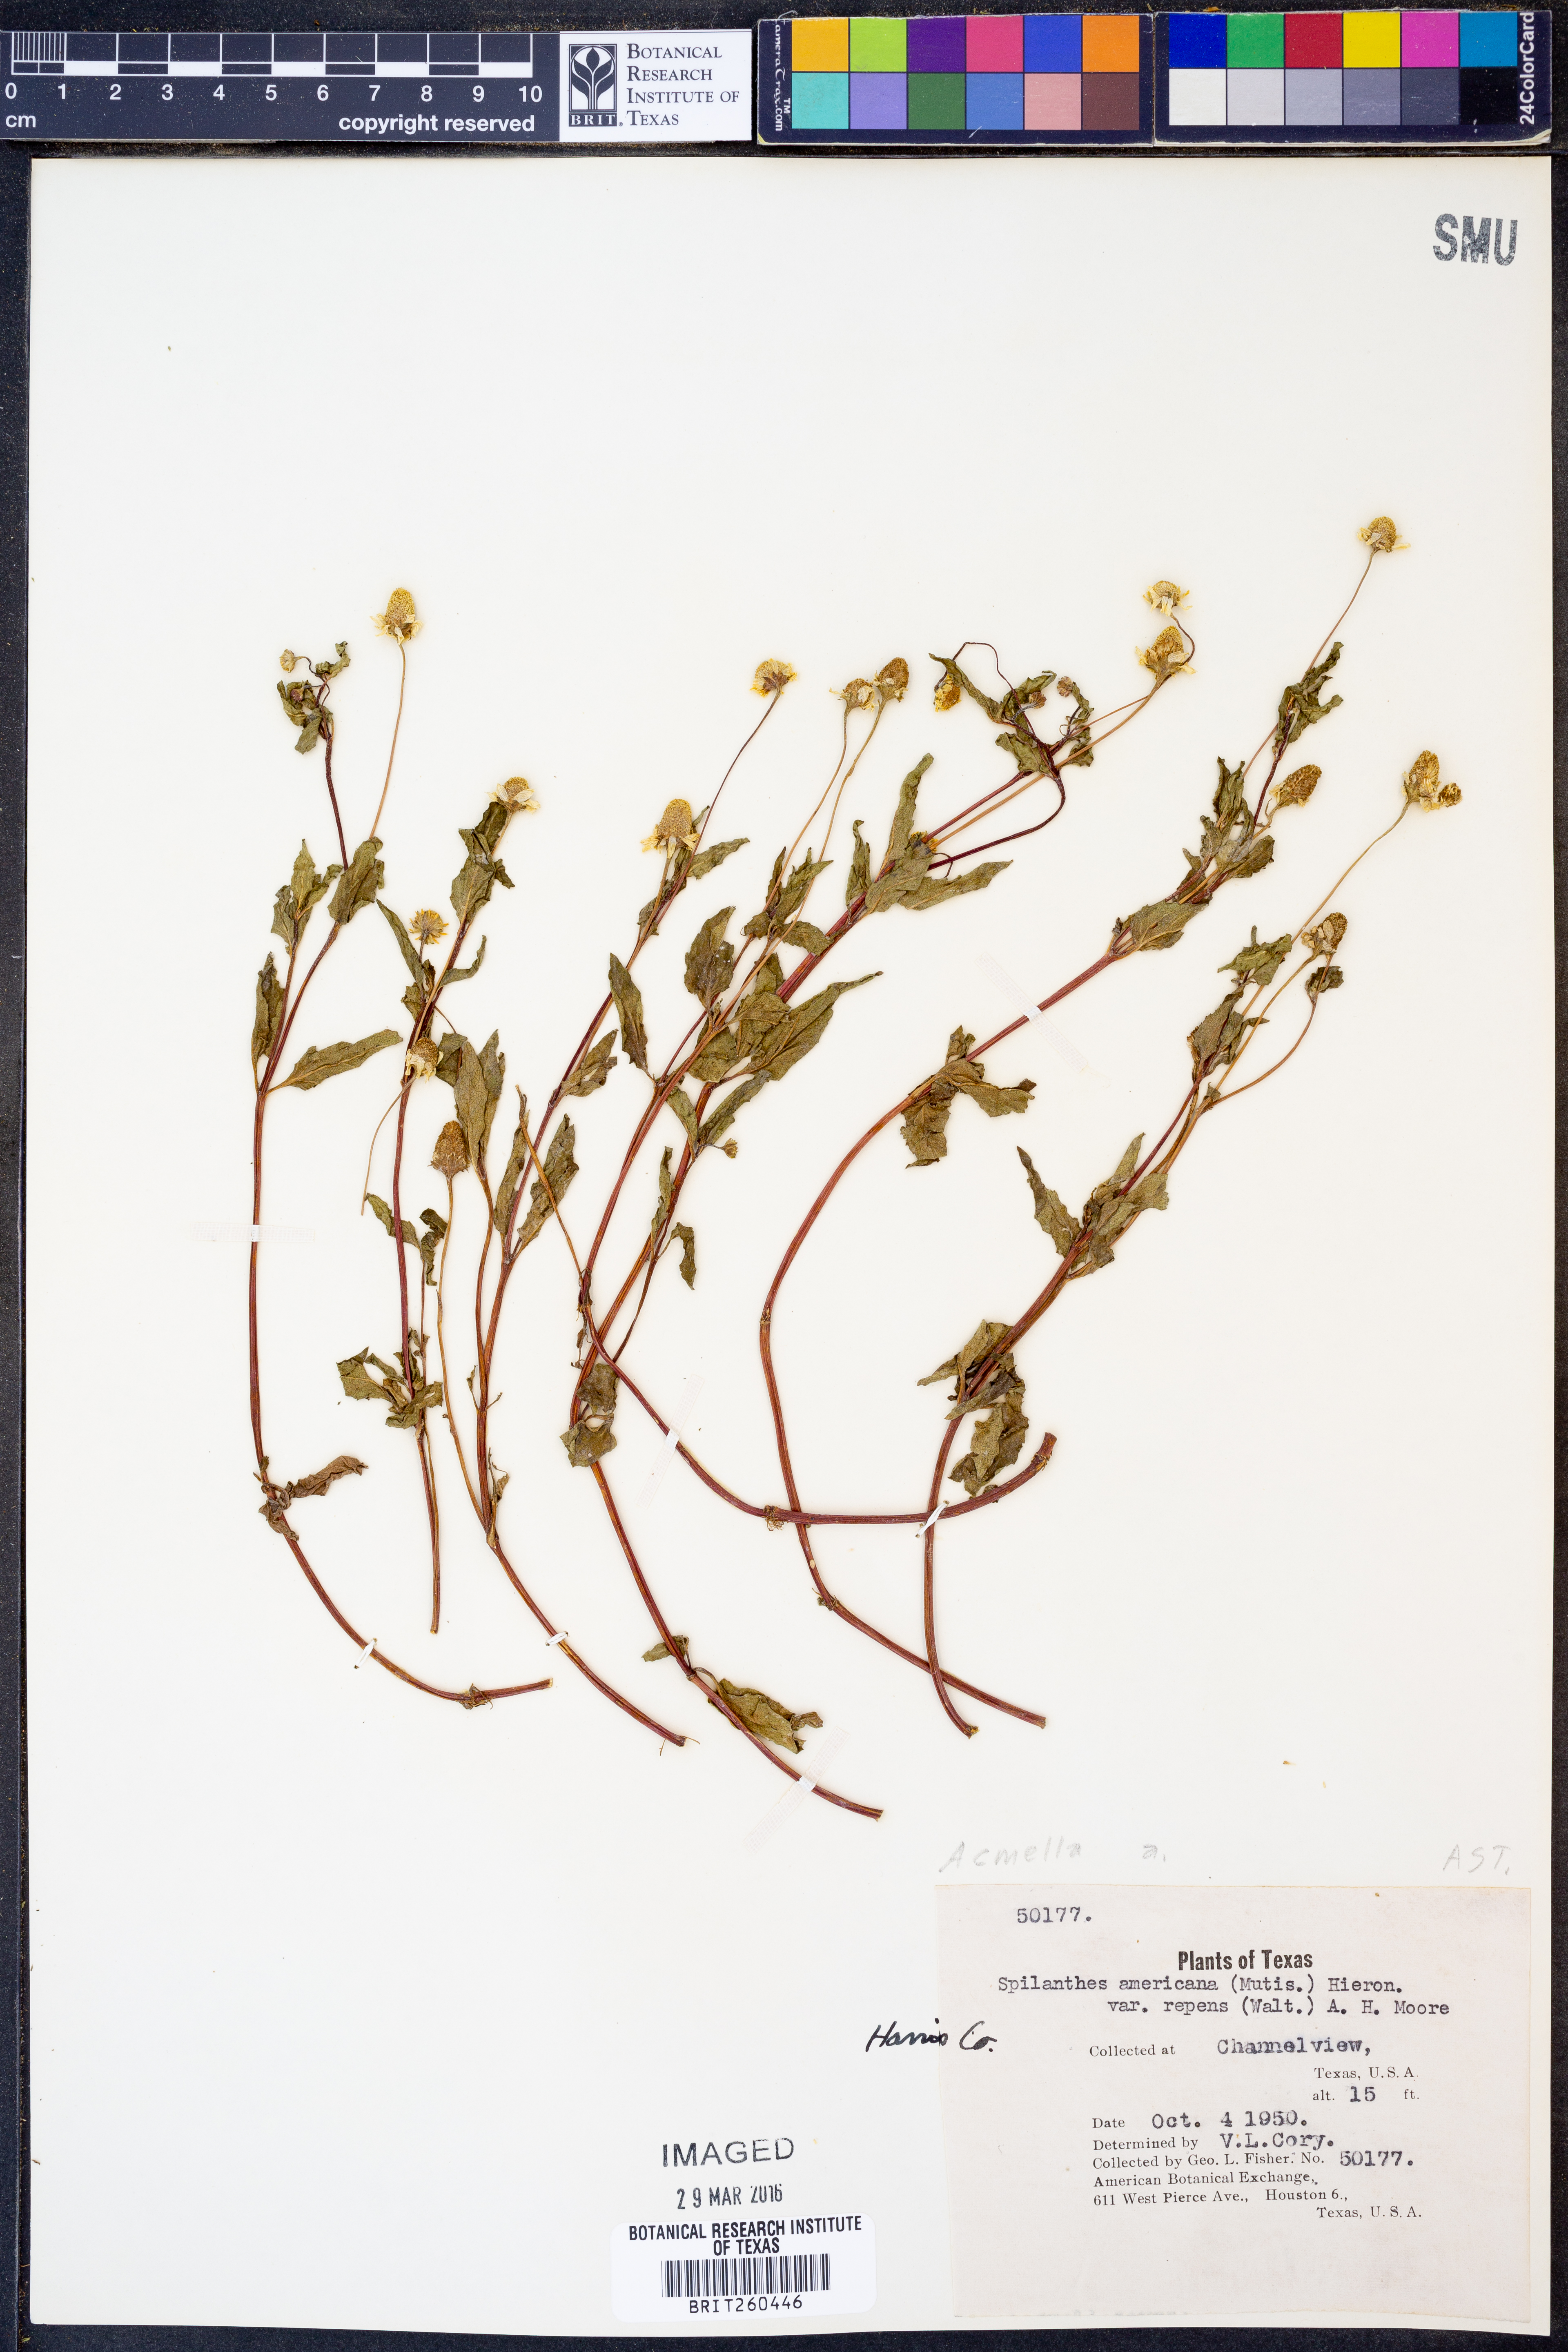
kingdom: Plantae
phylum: Tracheophyta
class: Magnoliopsida
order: Asterales
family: Asteraceae
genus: Acmella
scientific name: Acmella
